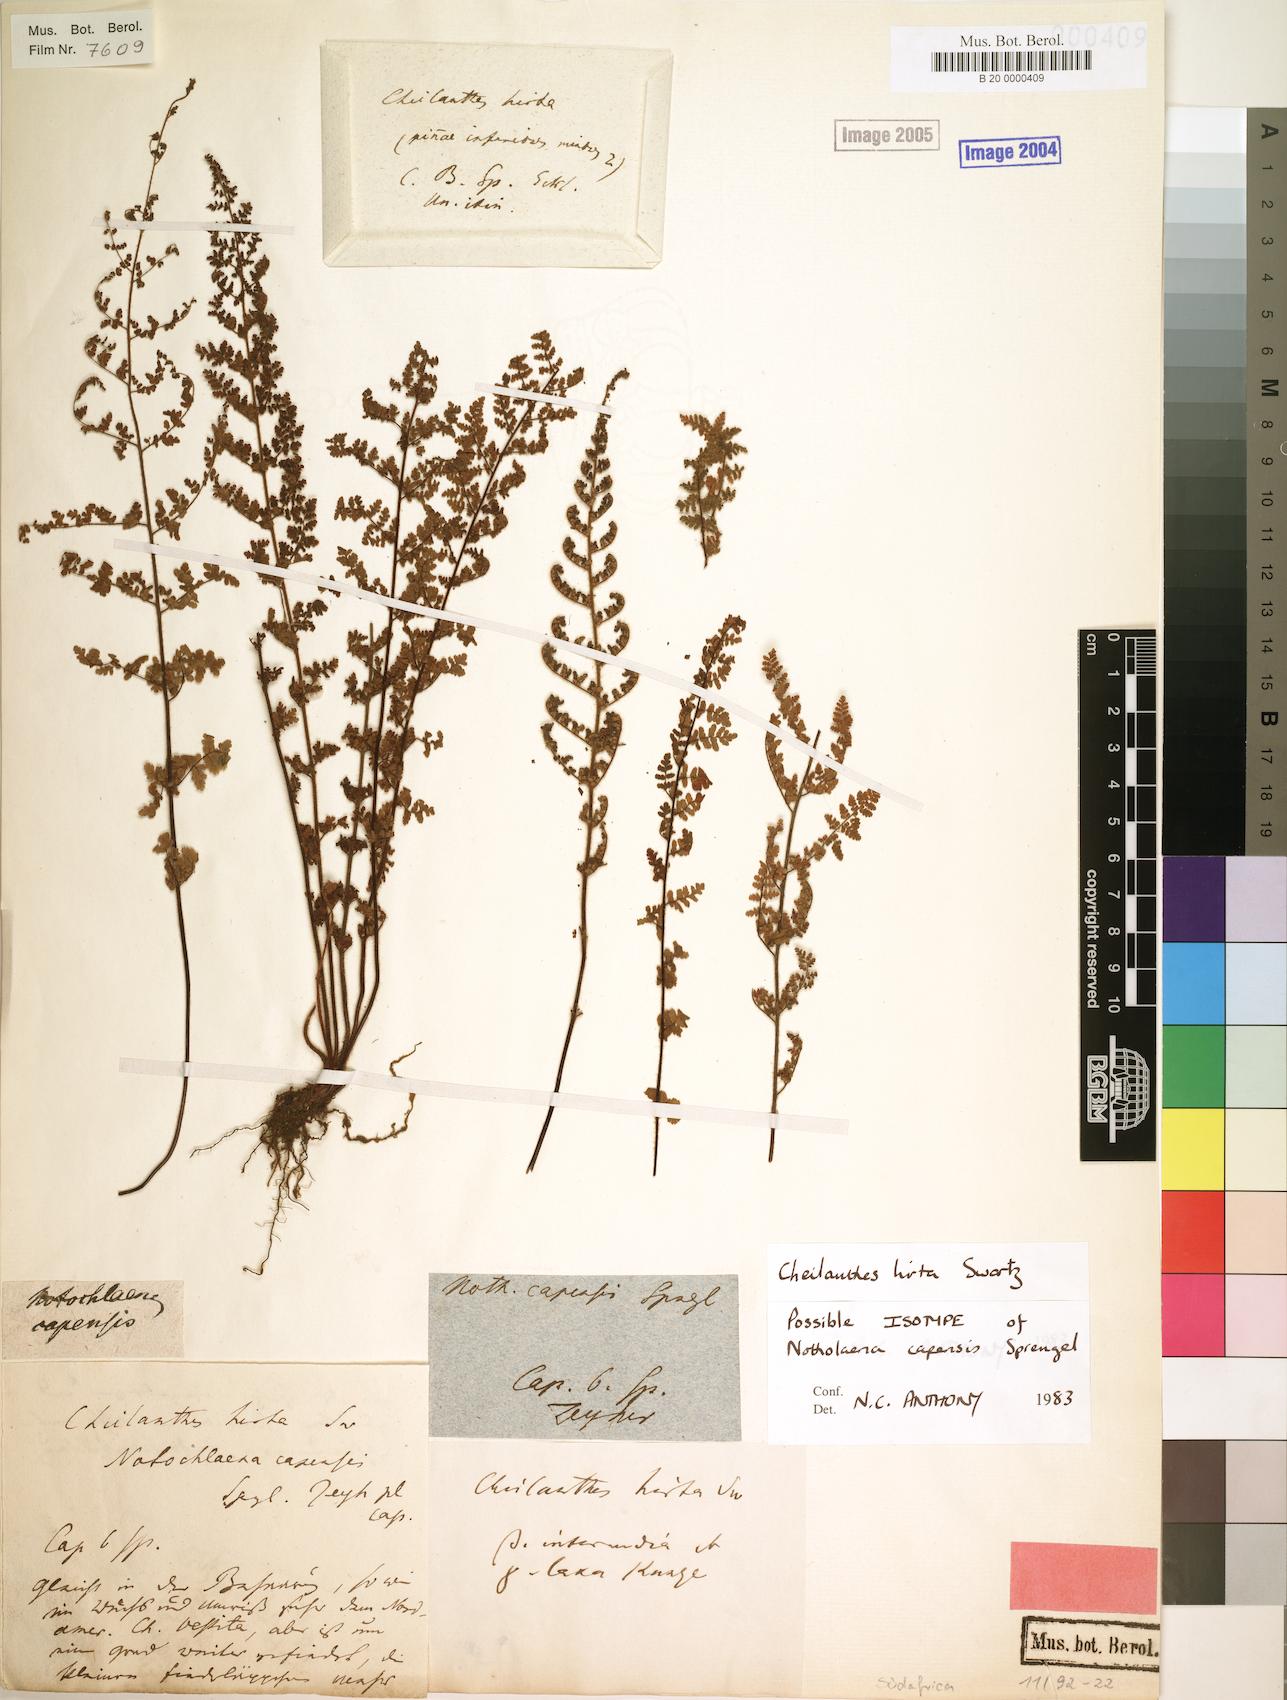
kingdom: Plantae
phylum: Tracheophyta
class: Polypodiopsida
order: Polypodiales
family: Pteridaceae
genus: Cheilanthes
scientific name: Cheilanthes hirta
